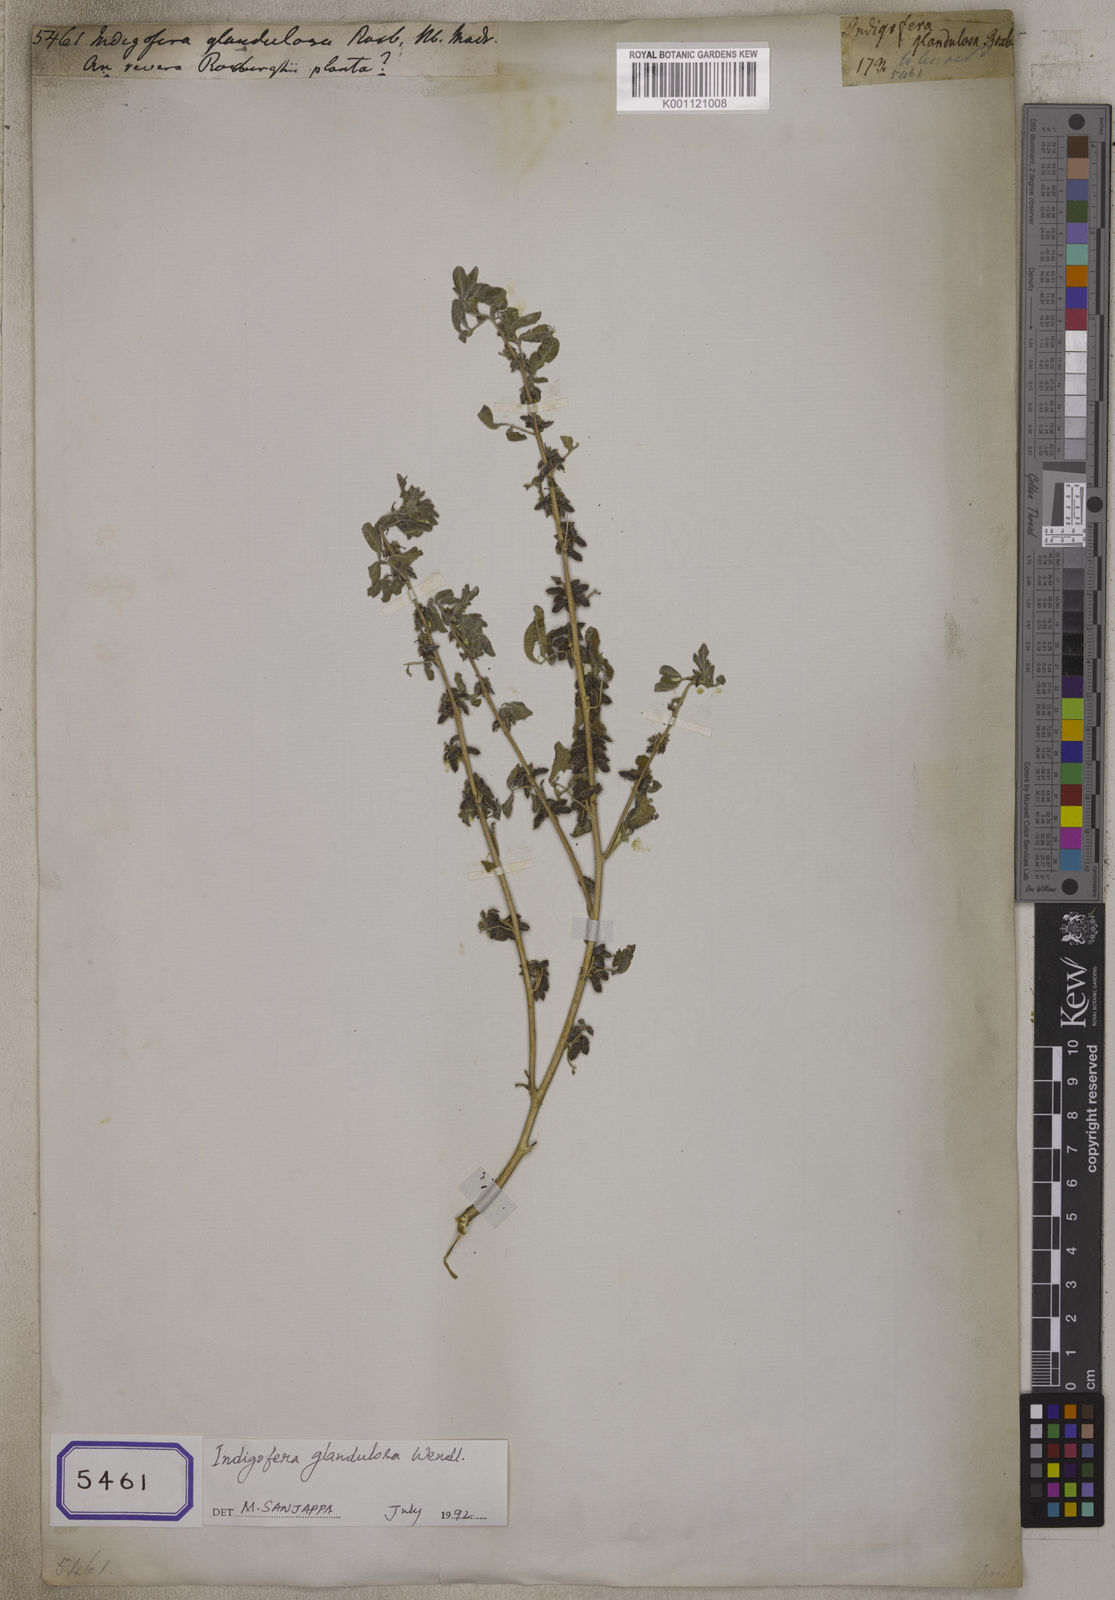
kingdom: Plantae
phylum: Tracheophyta
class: Magnoliopsida
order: Fabales
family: Fabaceae
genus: Indigofera
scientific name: Indigofera trifoliata
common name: Threeleaf indigo
